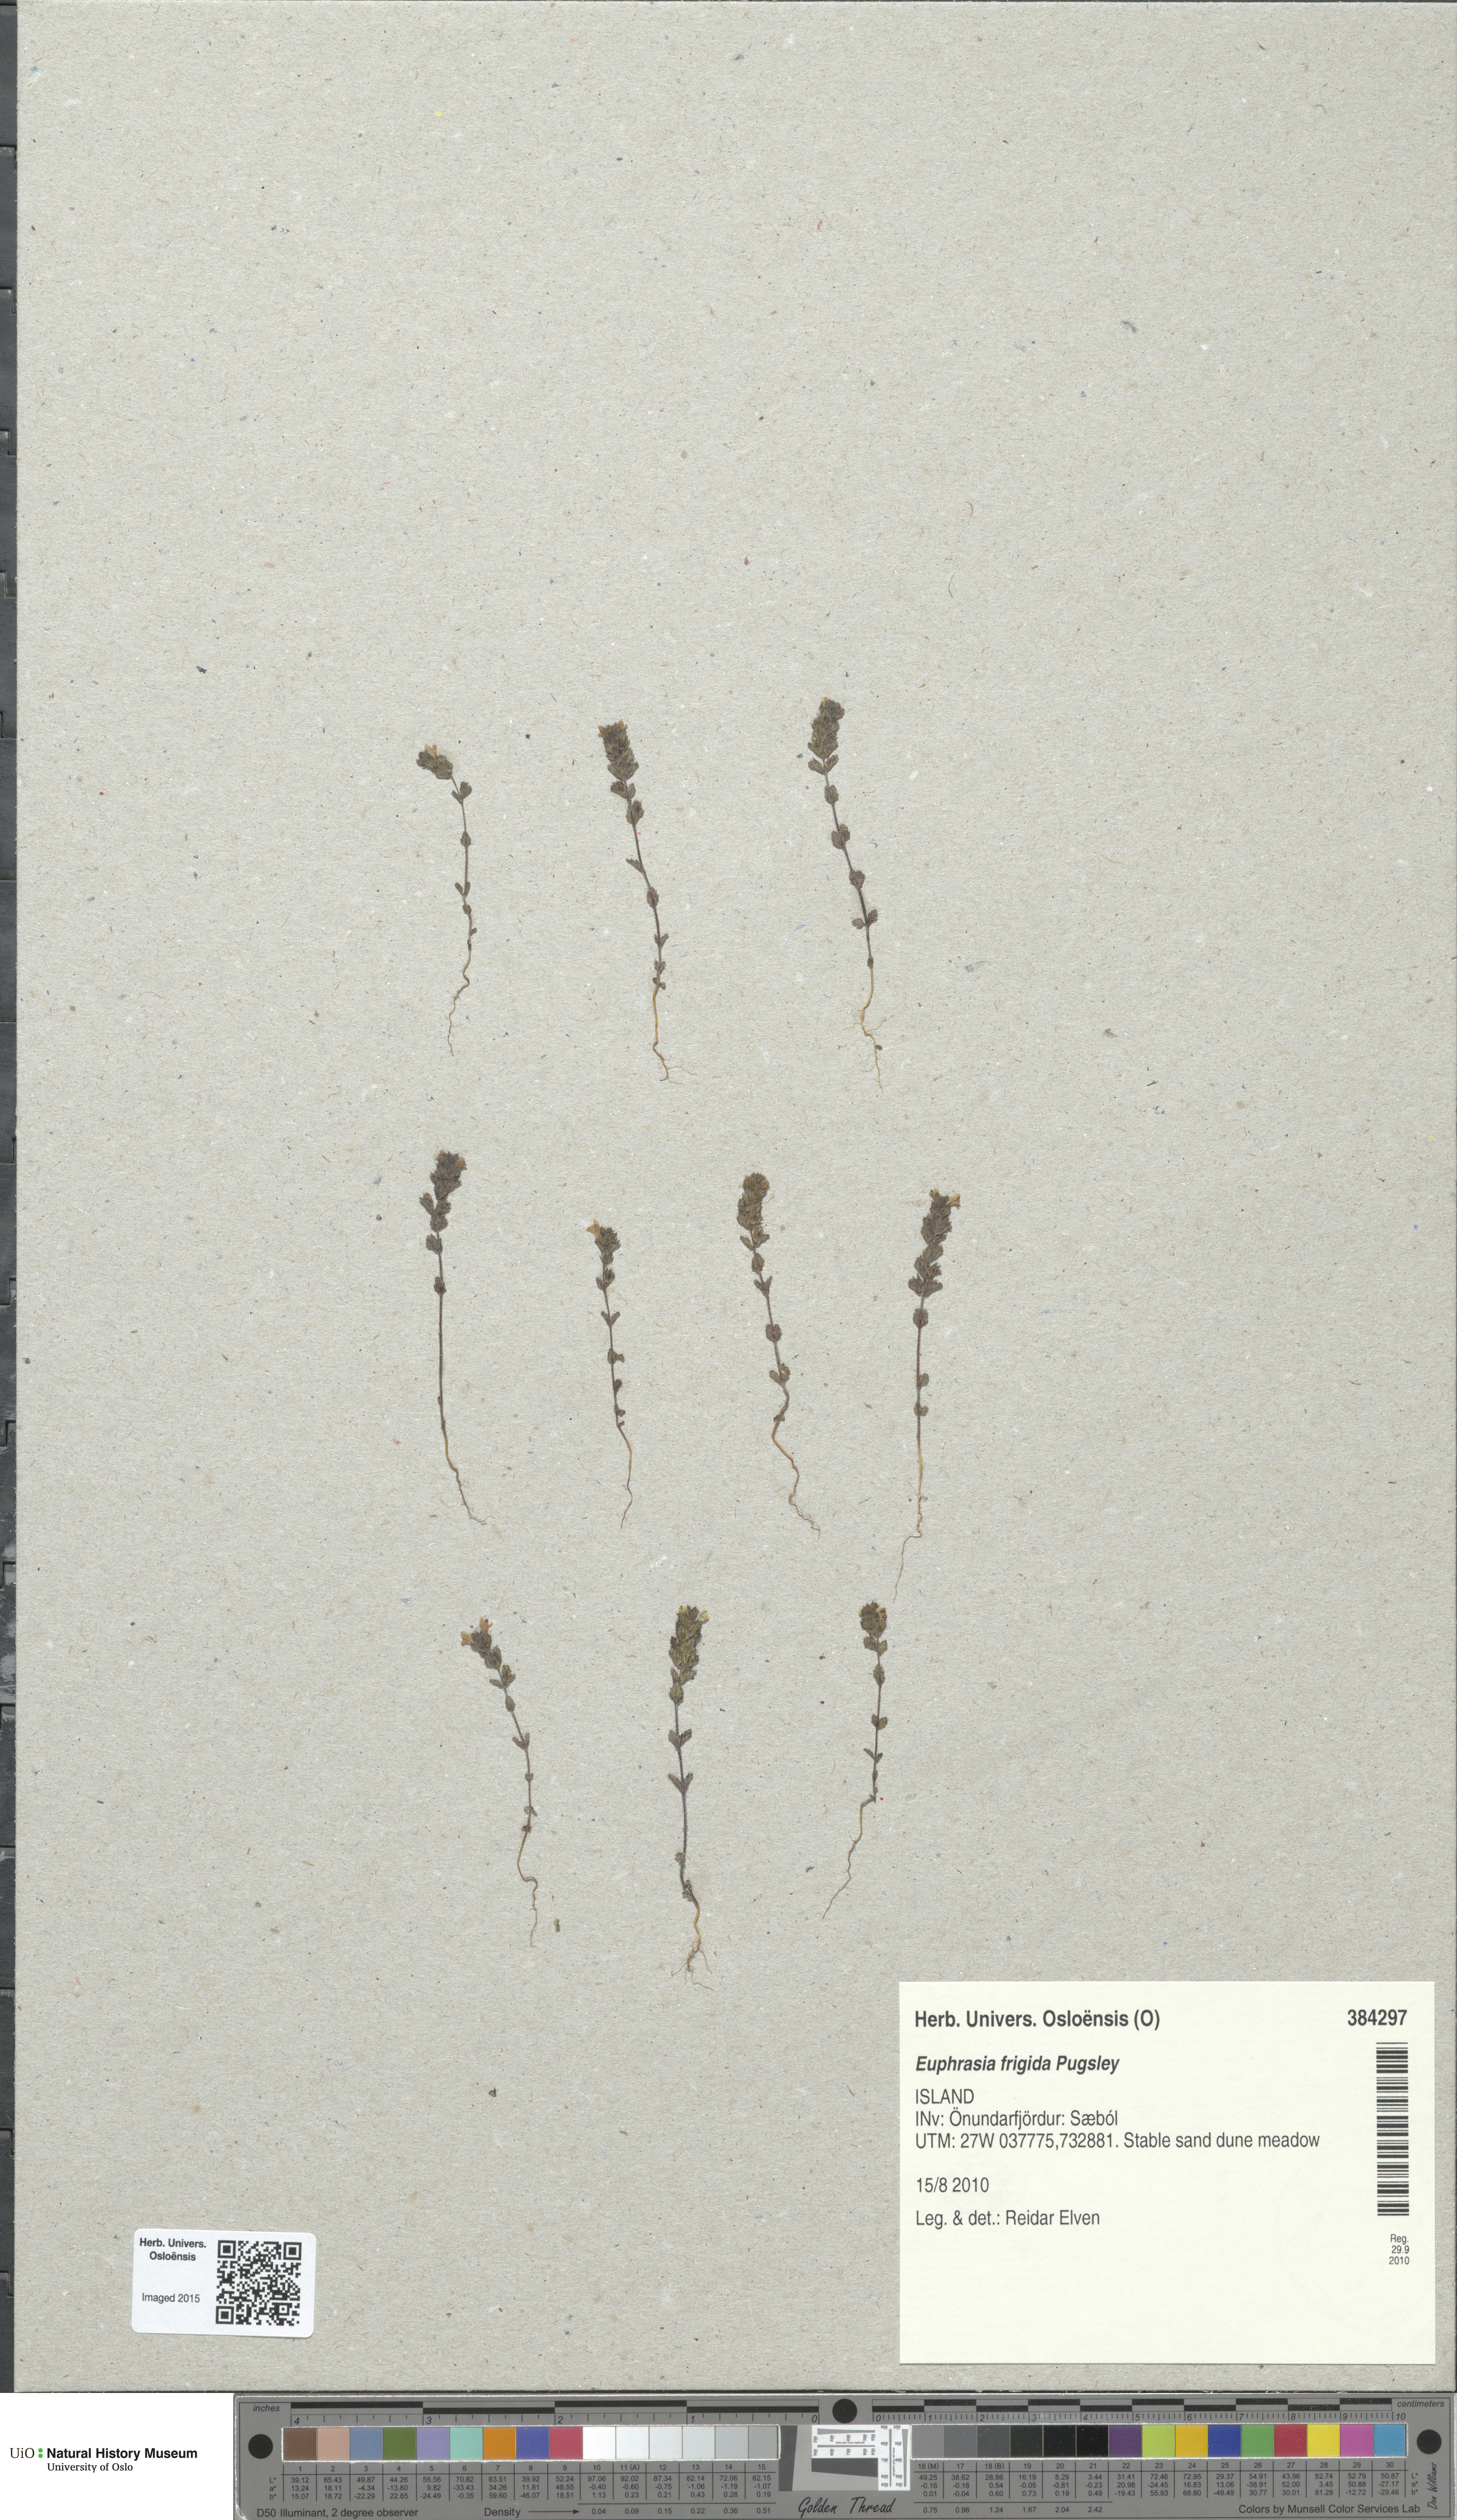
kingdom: Plantae
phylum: Tracheophyta
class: Magnoliopsida
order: Lamiales
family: Orobanchaceae
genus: Euphrasia
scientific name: Euphrasia frigida
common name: An eyebright
